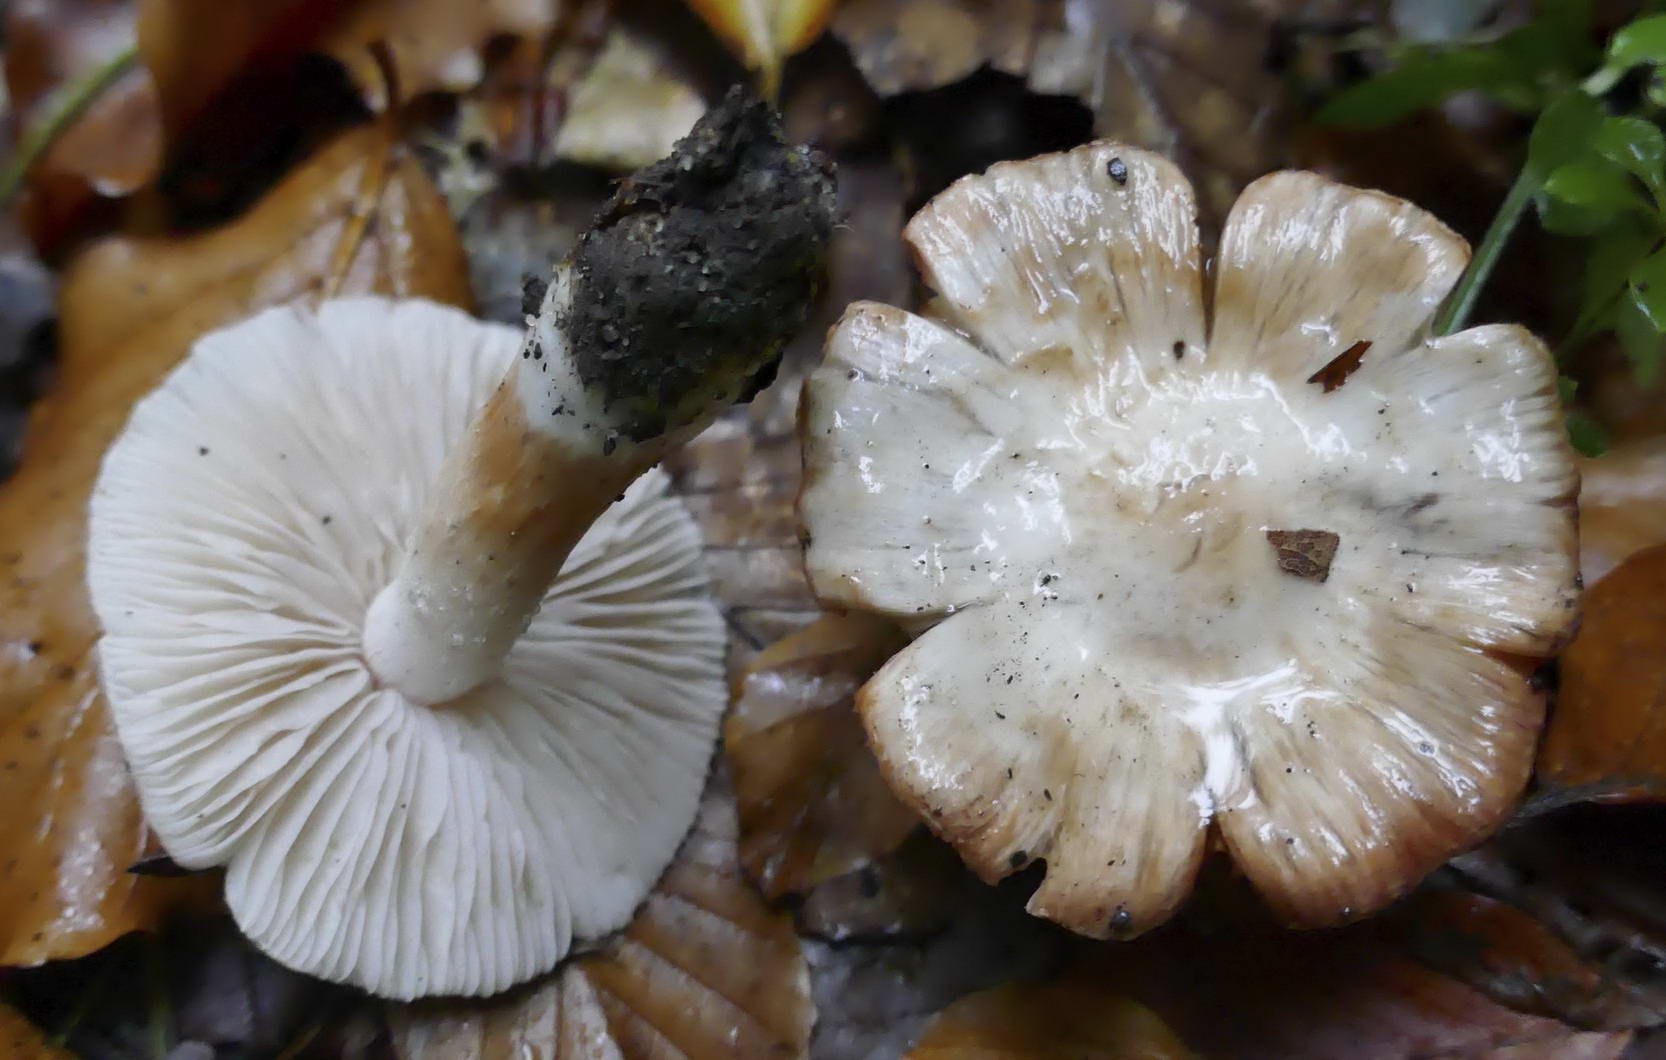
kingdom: Fungi
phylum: Basidiomycota
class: Agaricomycetes
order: Agaricales
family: Inocybaceae
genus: Inocybe
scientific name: Inocybe godeyi
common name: orangerødmende trævlhat
